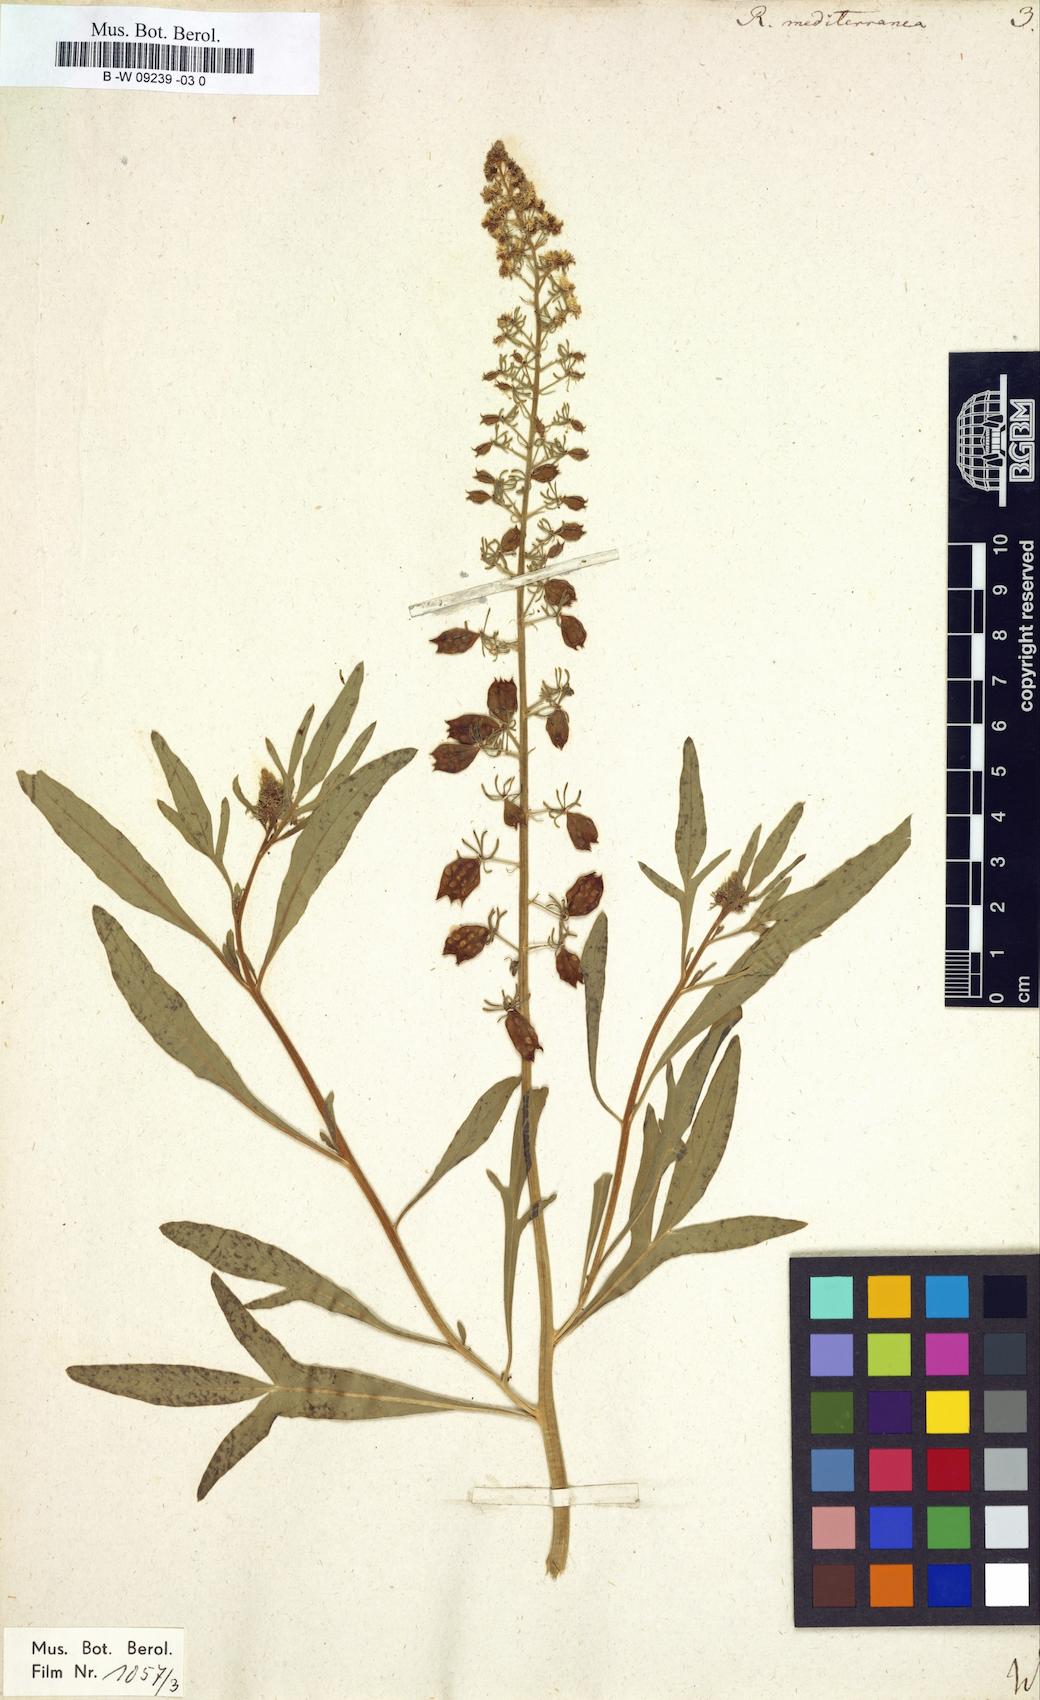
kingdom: Plantae
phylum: Tracheophyta
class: Magnoliopsida
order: Brassicales
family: Resedaceae
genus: Reseda
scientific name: Reseda mediterranea
